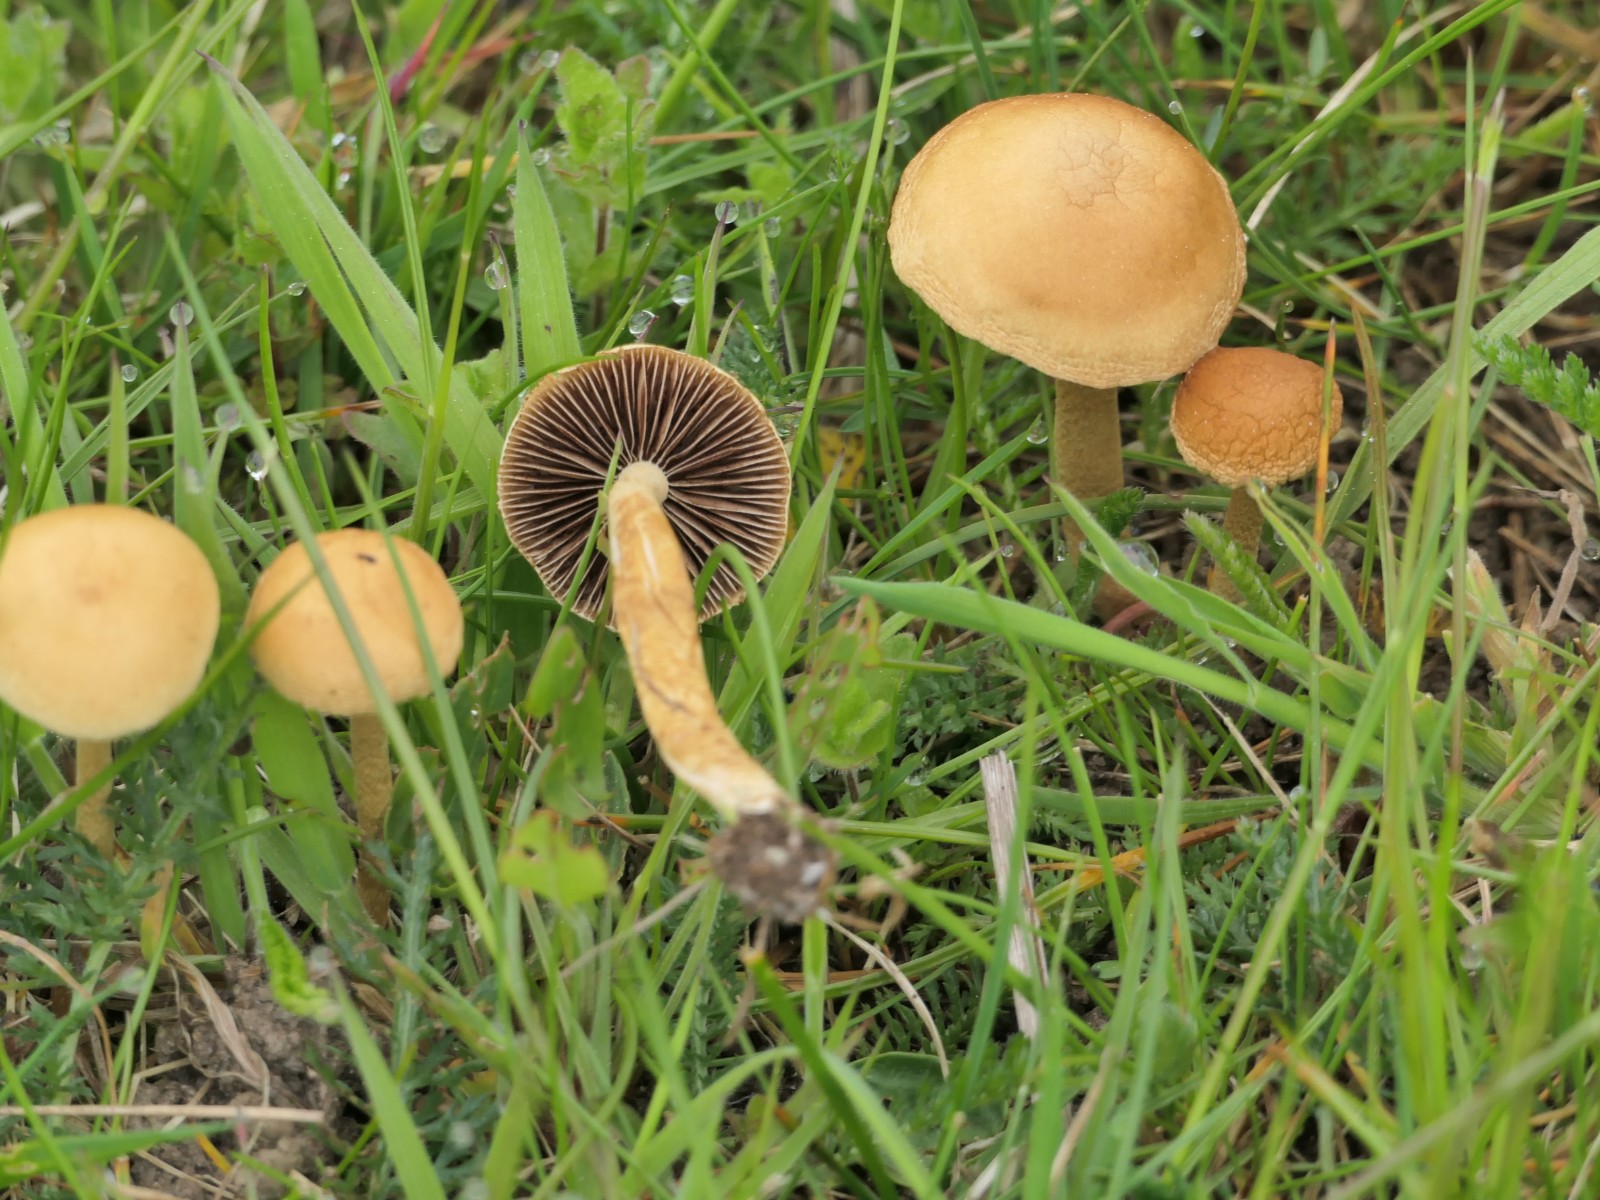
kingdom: Fungi
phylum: Basidiomycota
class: Agaricomycetes
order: Agaricales
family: Strophariaceae
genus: Agrocybe
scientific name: Agrocybe pediades
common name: almindelig agerhat
